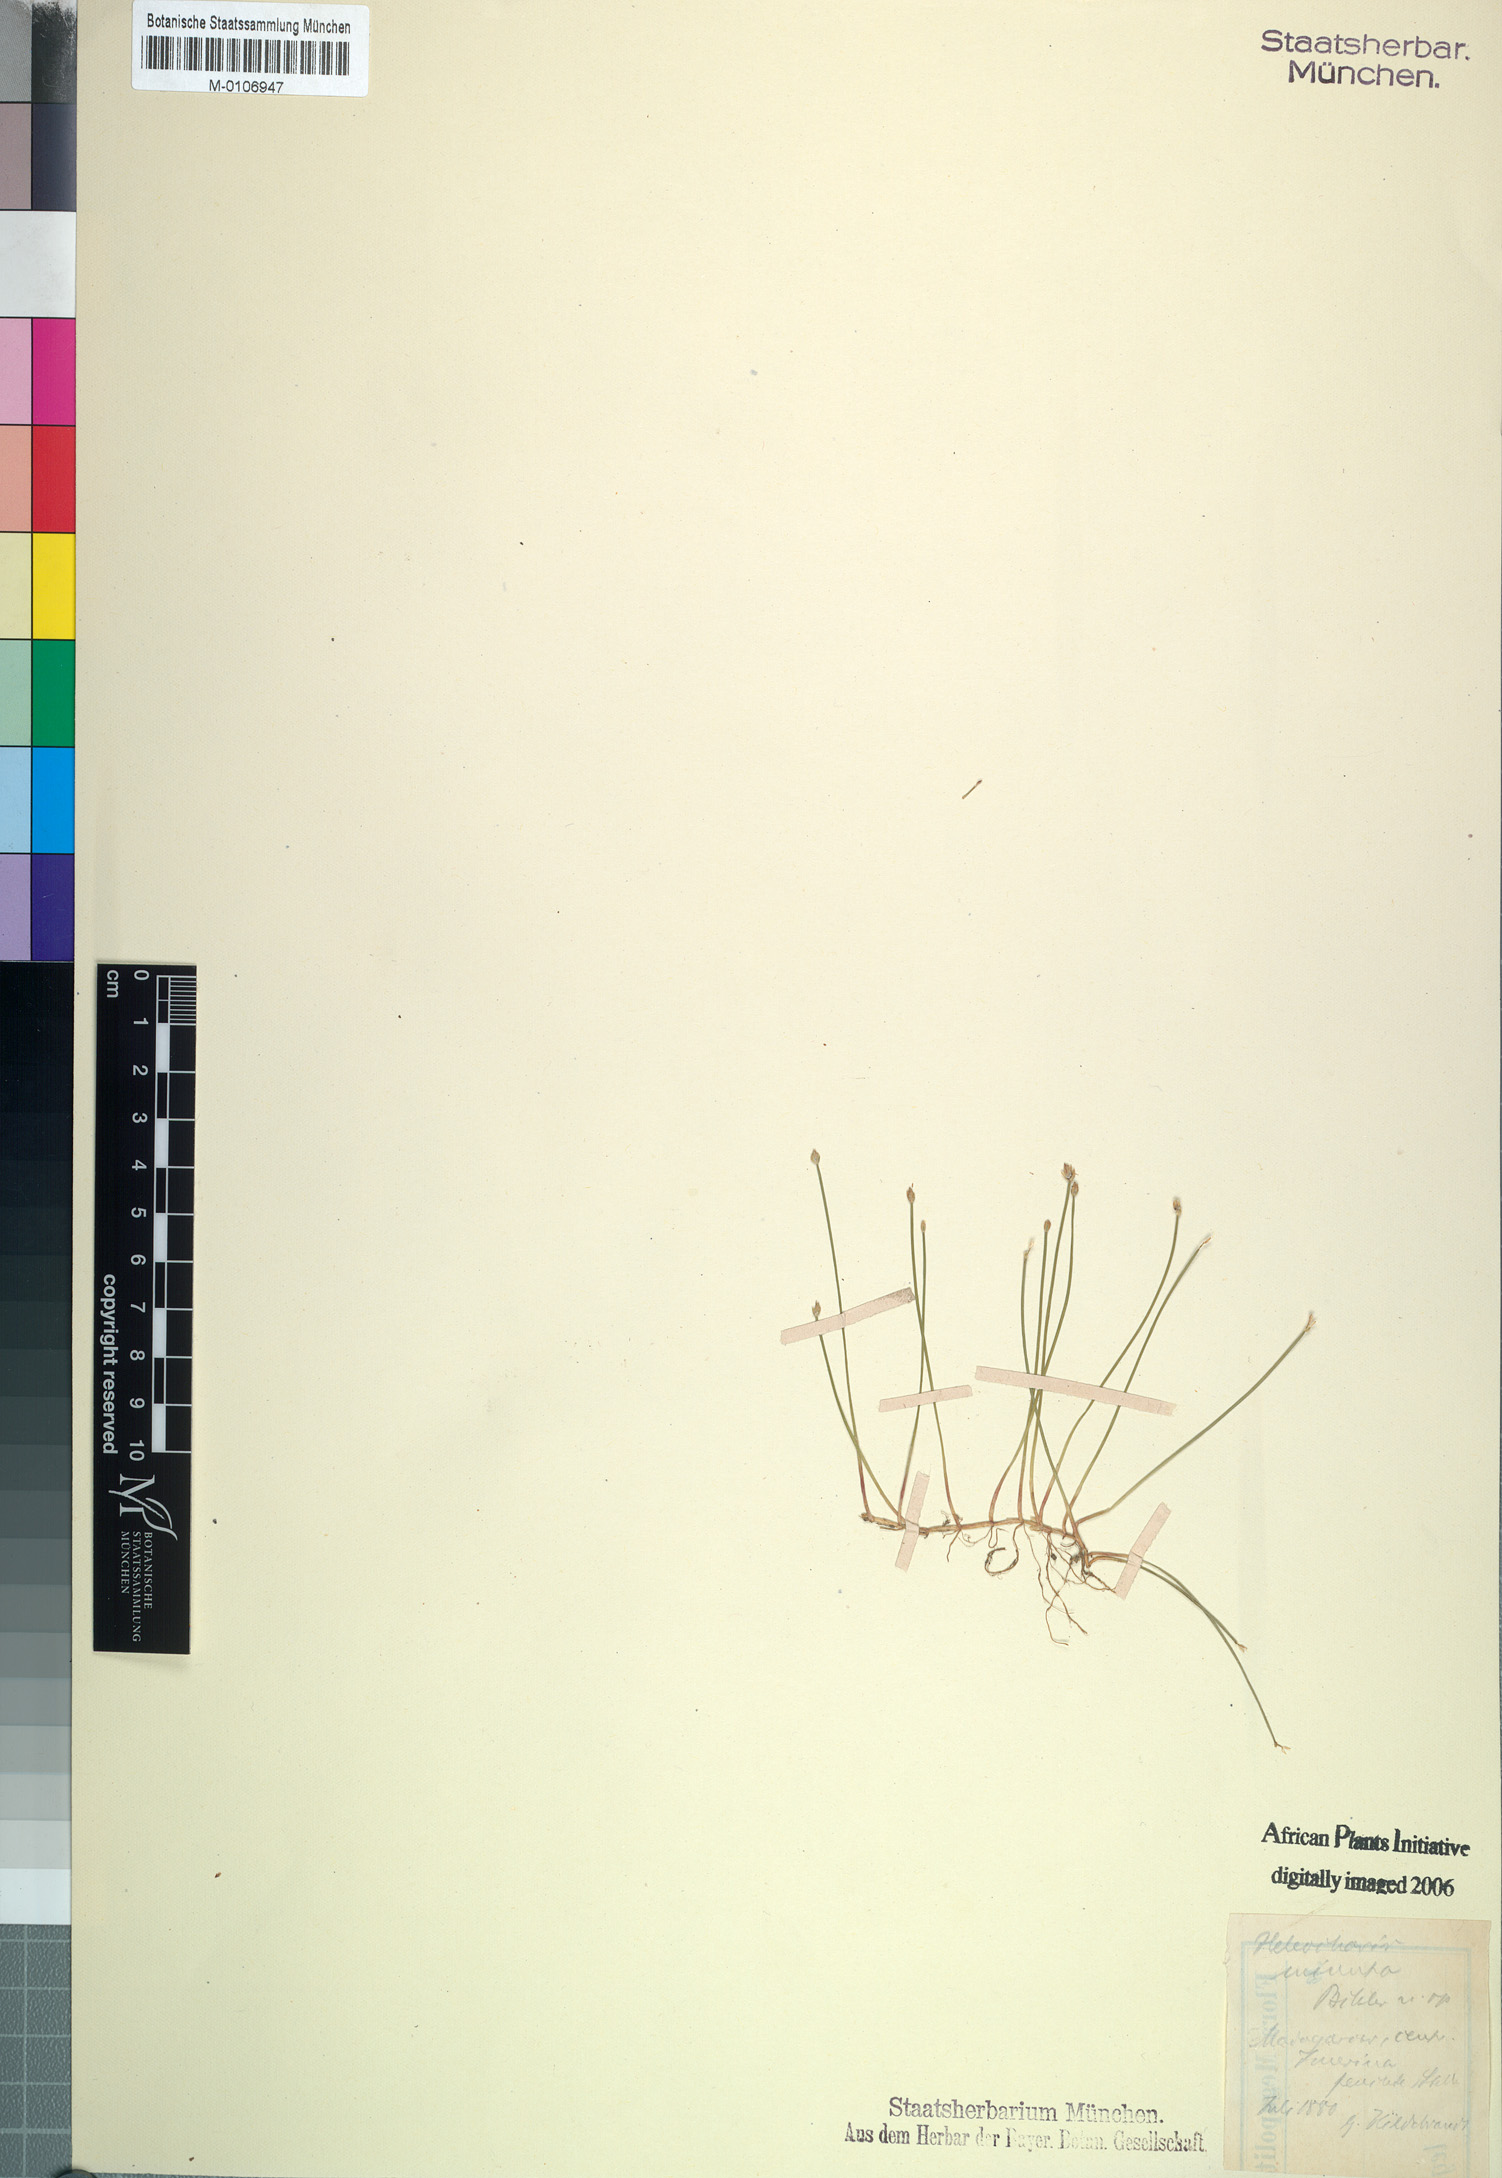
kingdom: Plantae
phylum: Tracheophyta
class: Liliopsida
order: Poales
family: Cyperaceae
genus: Eleocharis
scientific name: Eleocharis minuta
